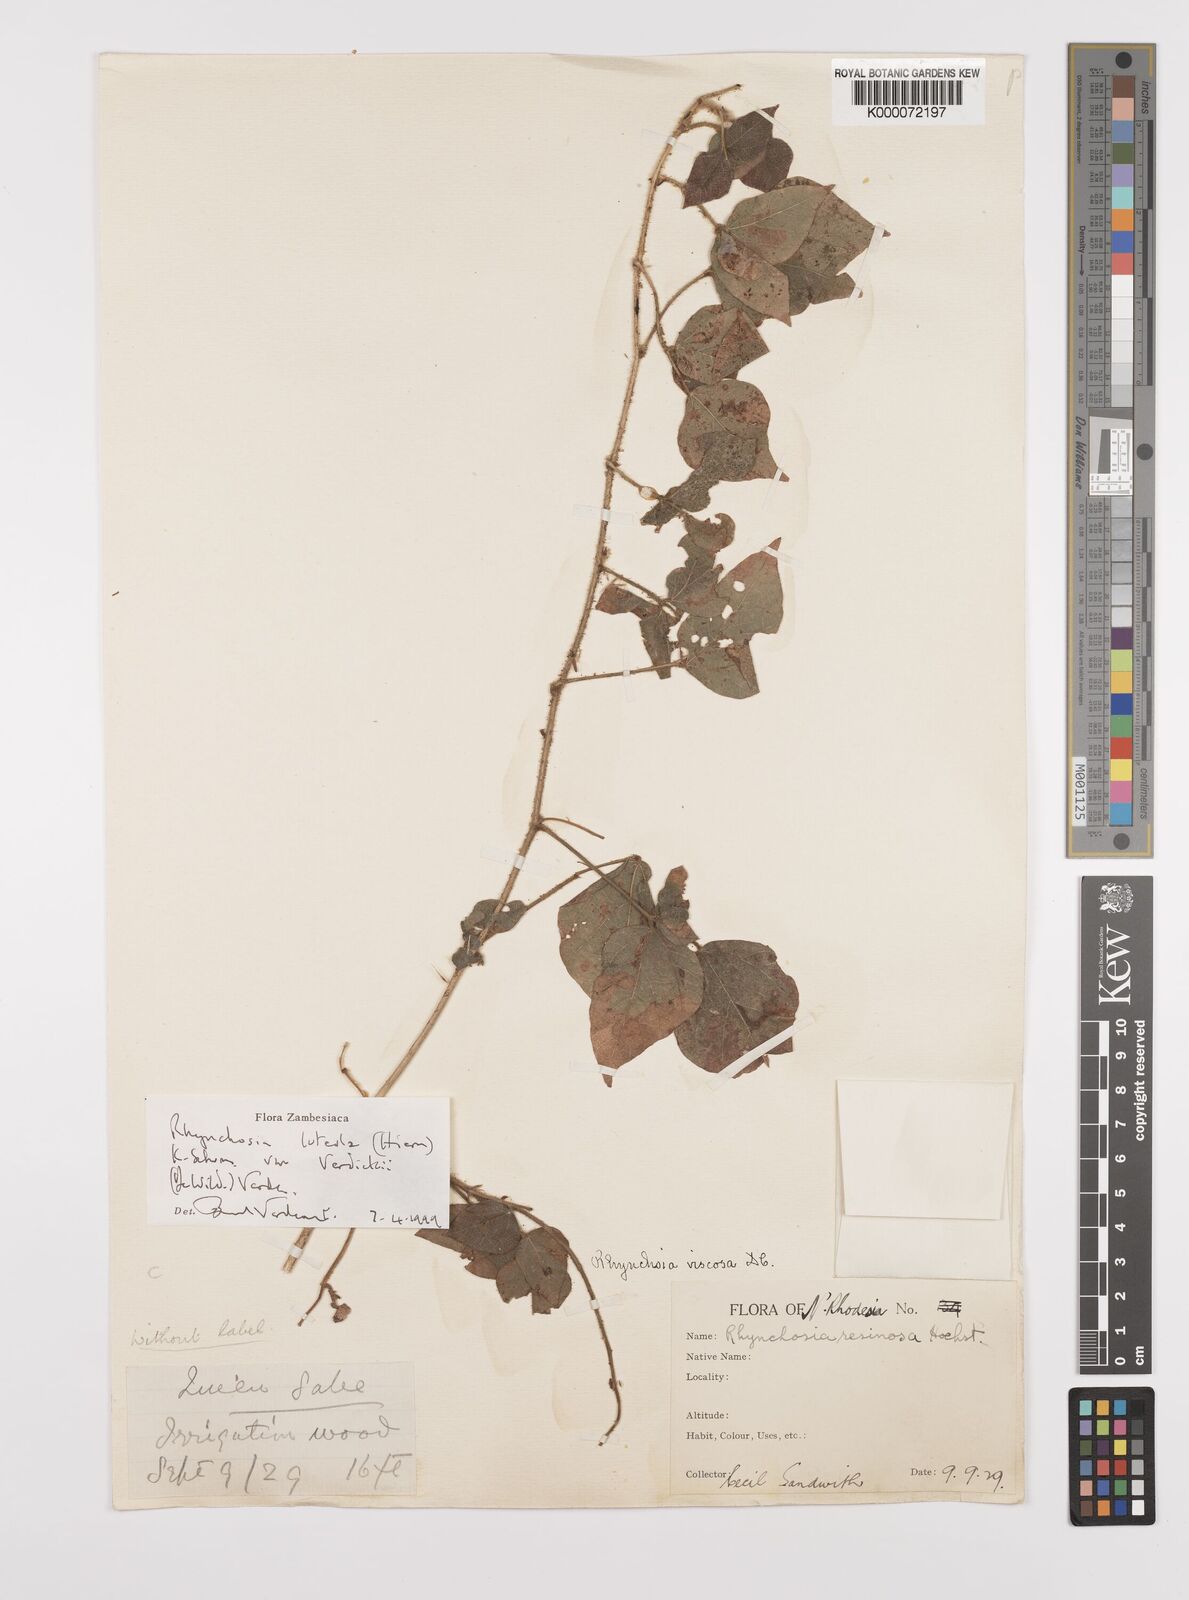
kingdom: Plantae
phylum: Tracheophyta
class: Magnoliopsida
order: Fabales
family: Fabaceae
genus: Rhynchosia
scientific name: Rhynchosia luteola
